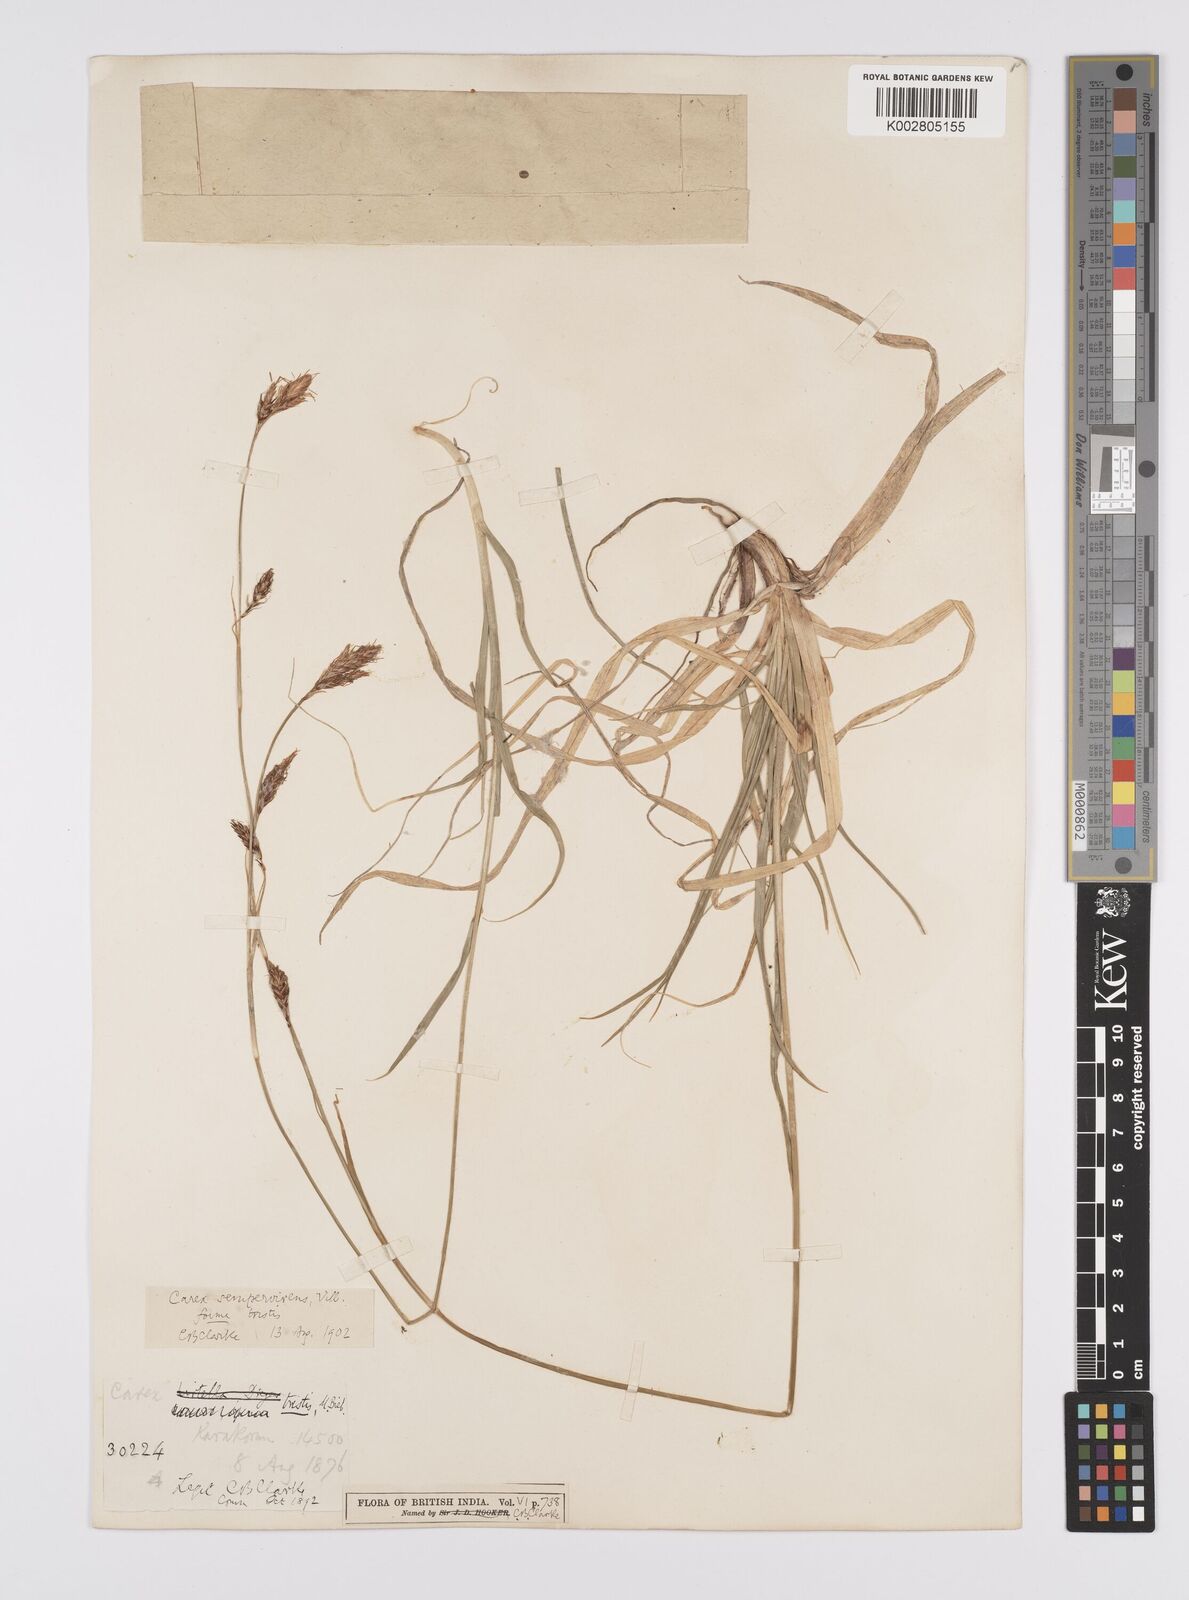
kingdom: Plantae
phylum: Tracheophyta
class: Liliopsida
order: Poales
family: Cyperaceae
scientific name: Cyperaceae
